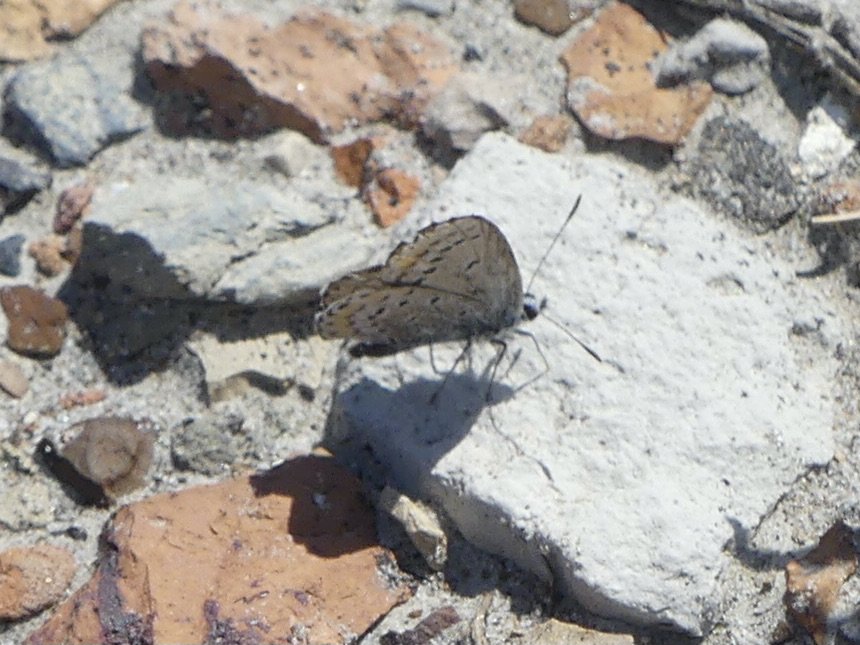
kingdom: Animalia
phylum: Arthropoda
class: Insecta
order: Lepidoptera
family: Lycaenidae
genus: Lycaeides
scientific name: Lycaeides melissa
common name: Melissa Blue
